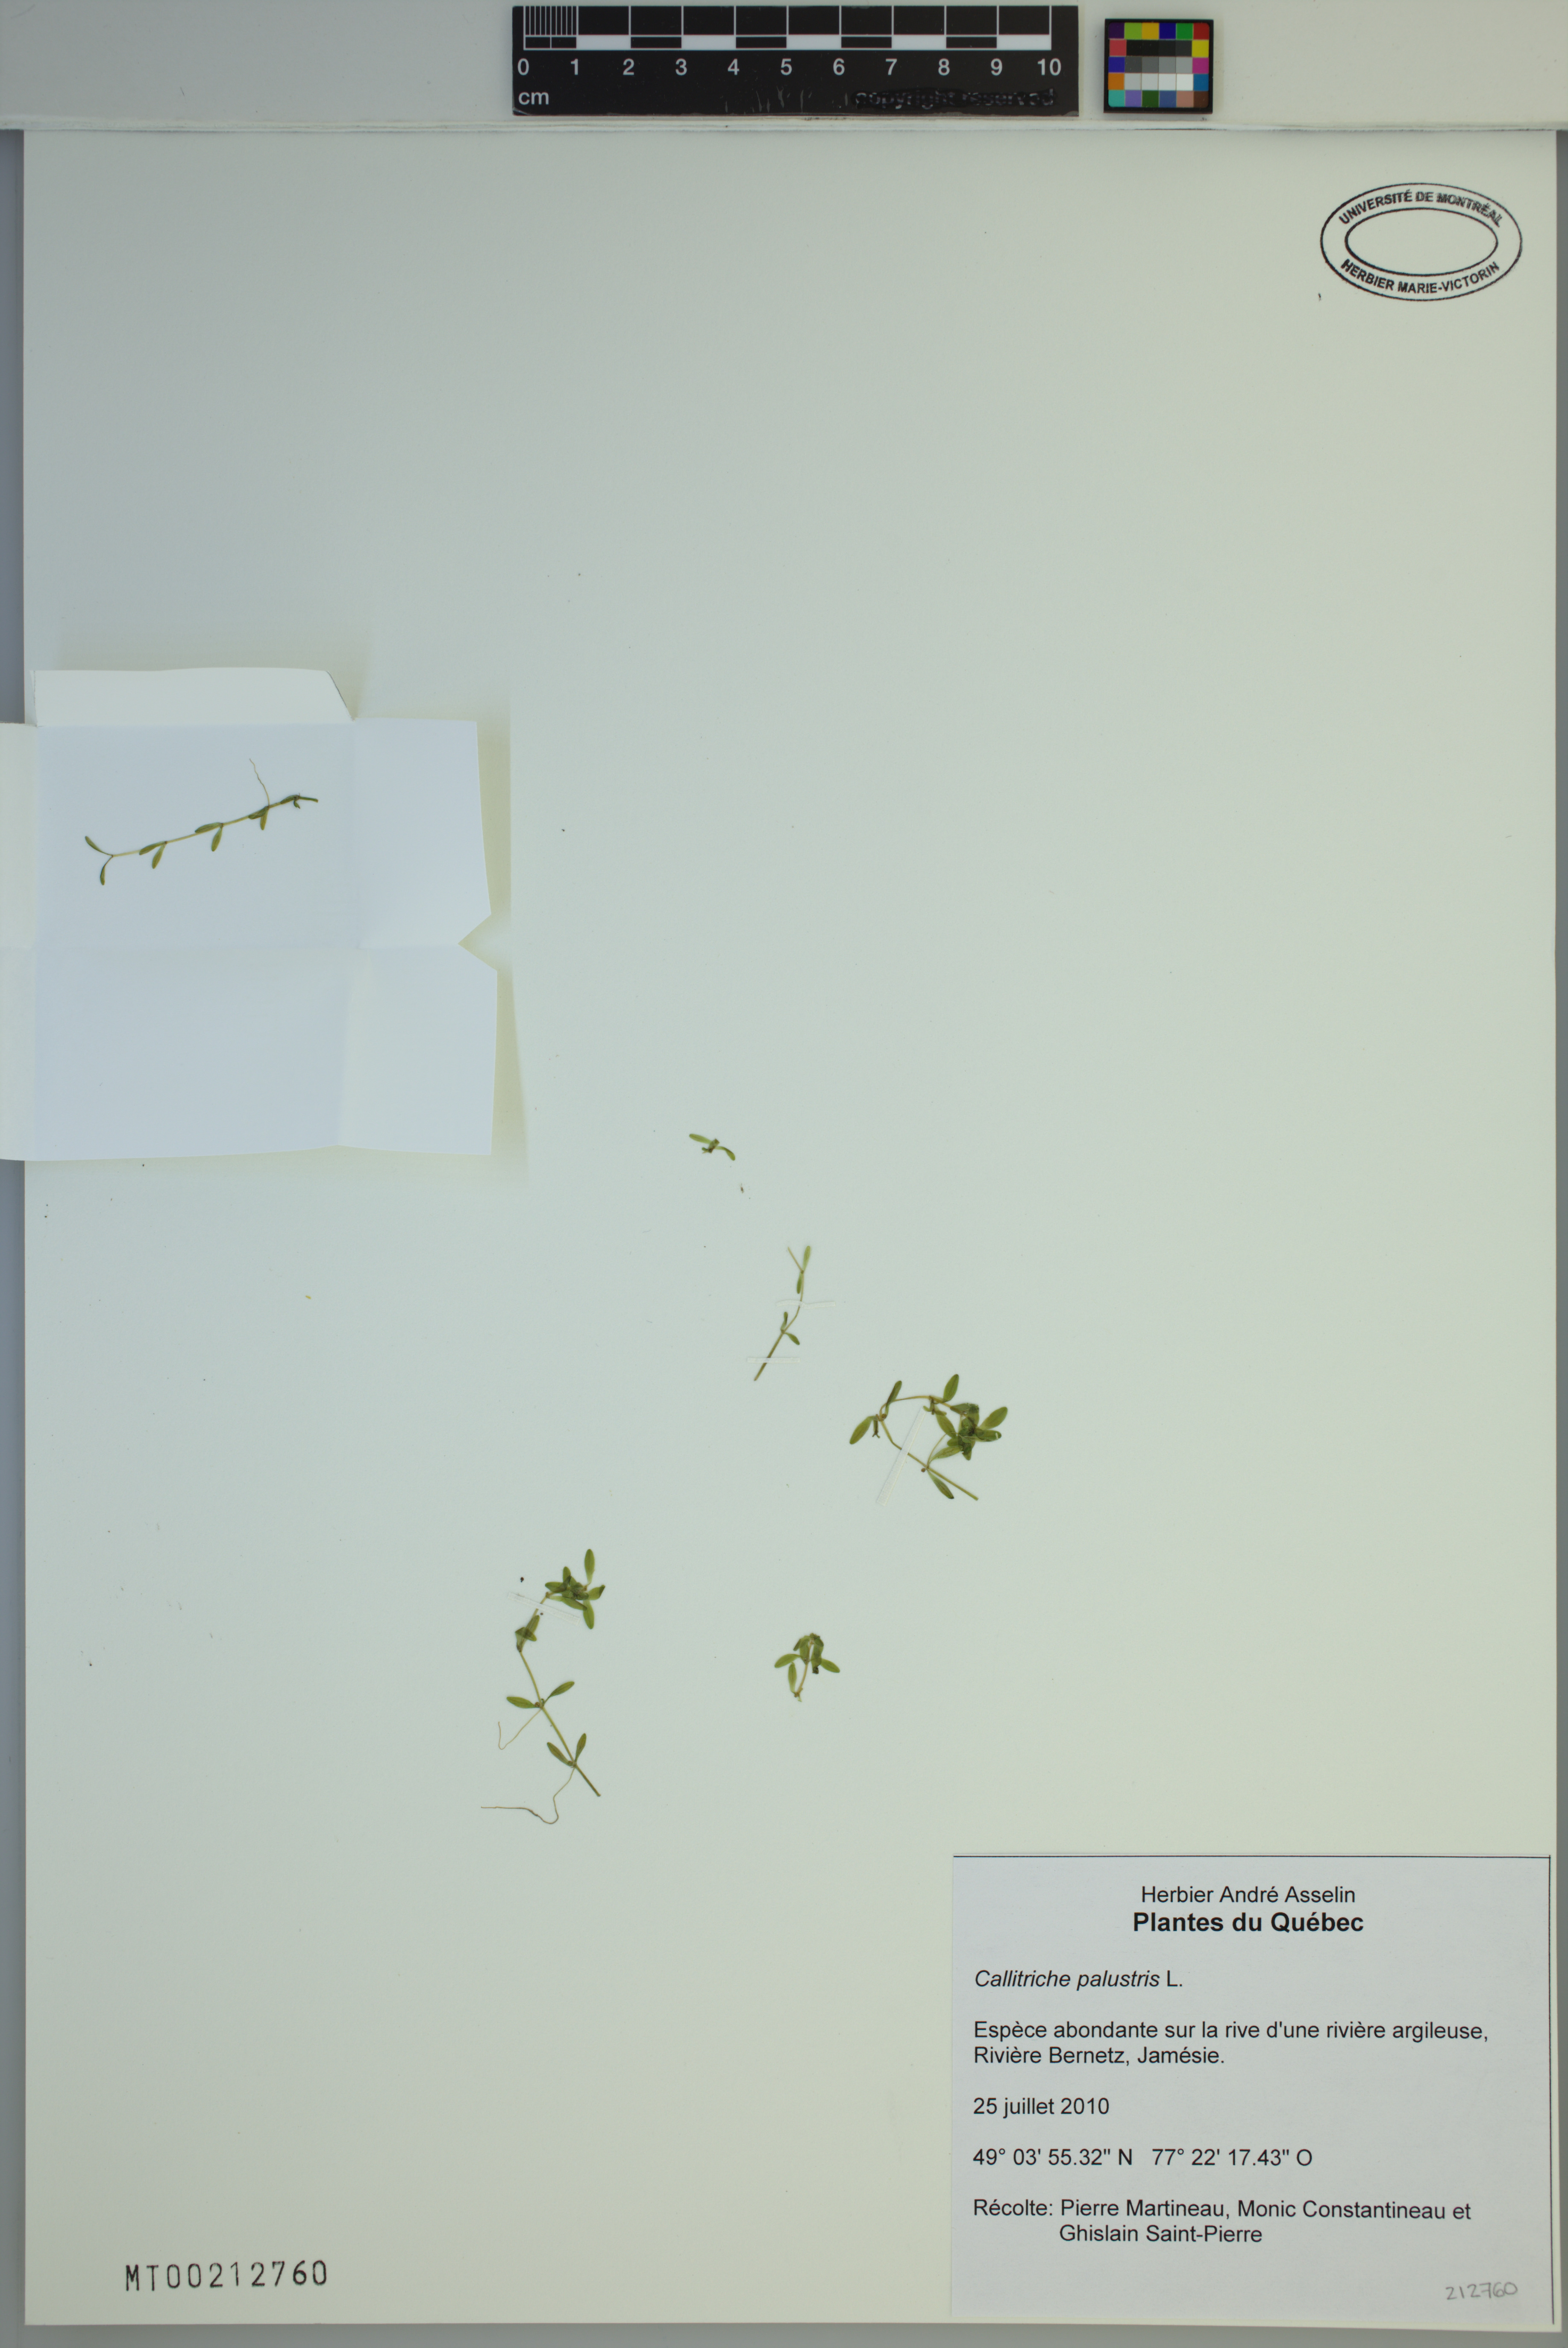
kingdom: Plantae
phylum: Tracheophyta
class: Magnoliopsida
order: Lamiales
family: Plantaginaceae
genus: Callitriche
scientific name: Callitriche palustris
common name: Spring water-starwort
